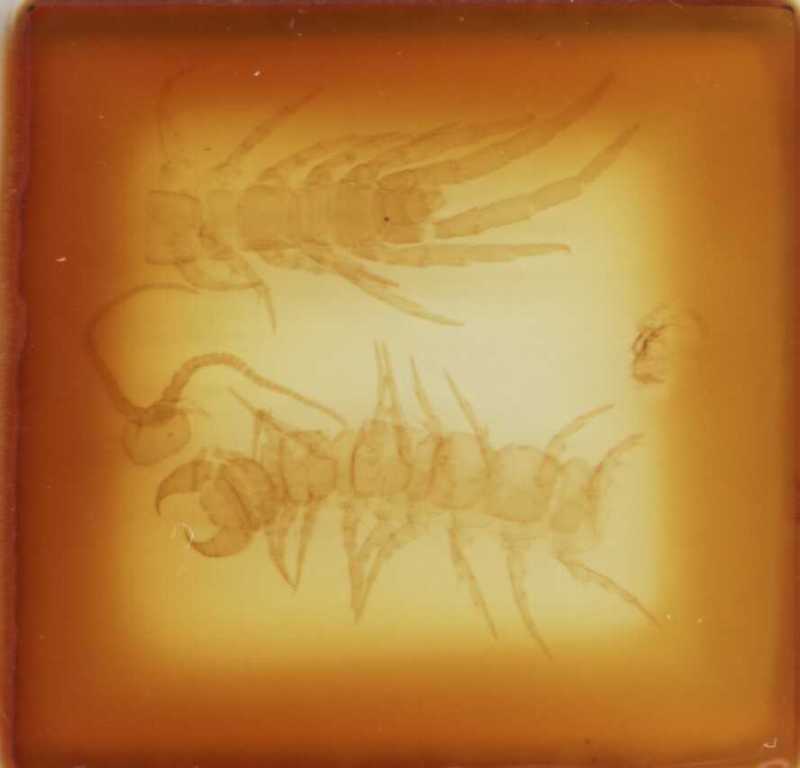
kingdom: Animalia
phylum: Arthropoda
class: Chilopoda
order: Lithobiomorpha
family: Lithobiidae
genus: Lithobius
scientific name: Lithobius castaneus
